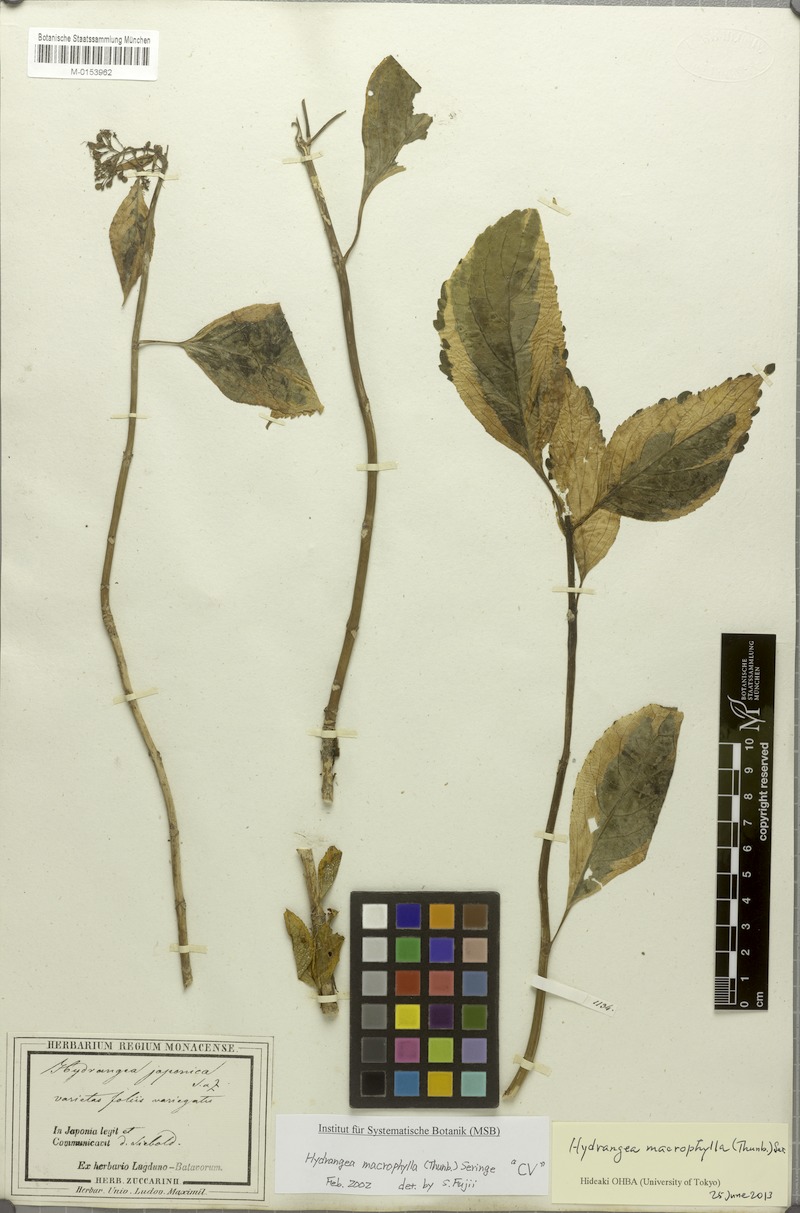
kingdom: Plantae
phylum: Tracheophyta
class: Magnoliopsida
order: Cornales
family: Hydrangeaceae
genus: Hydrangea
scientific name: Hydrangea macrophylla
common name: Hydrangea
